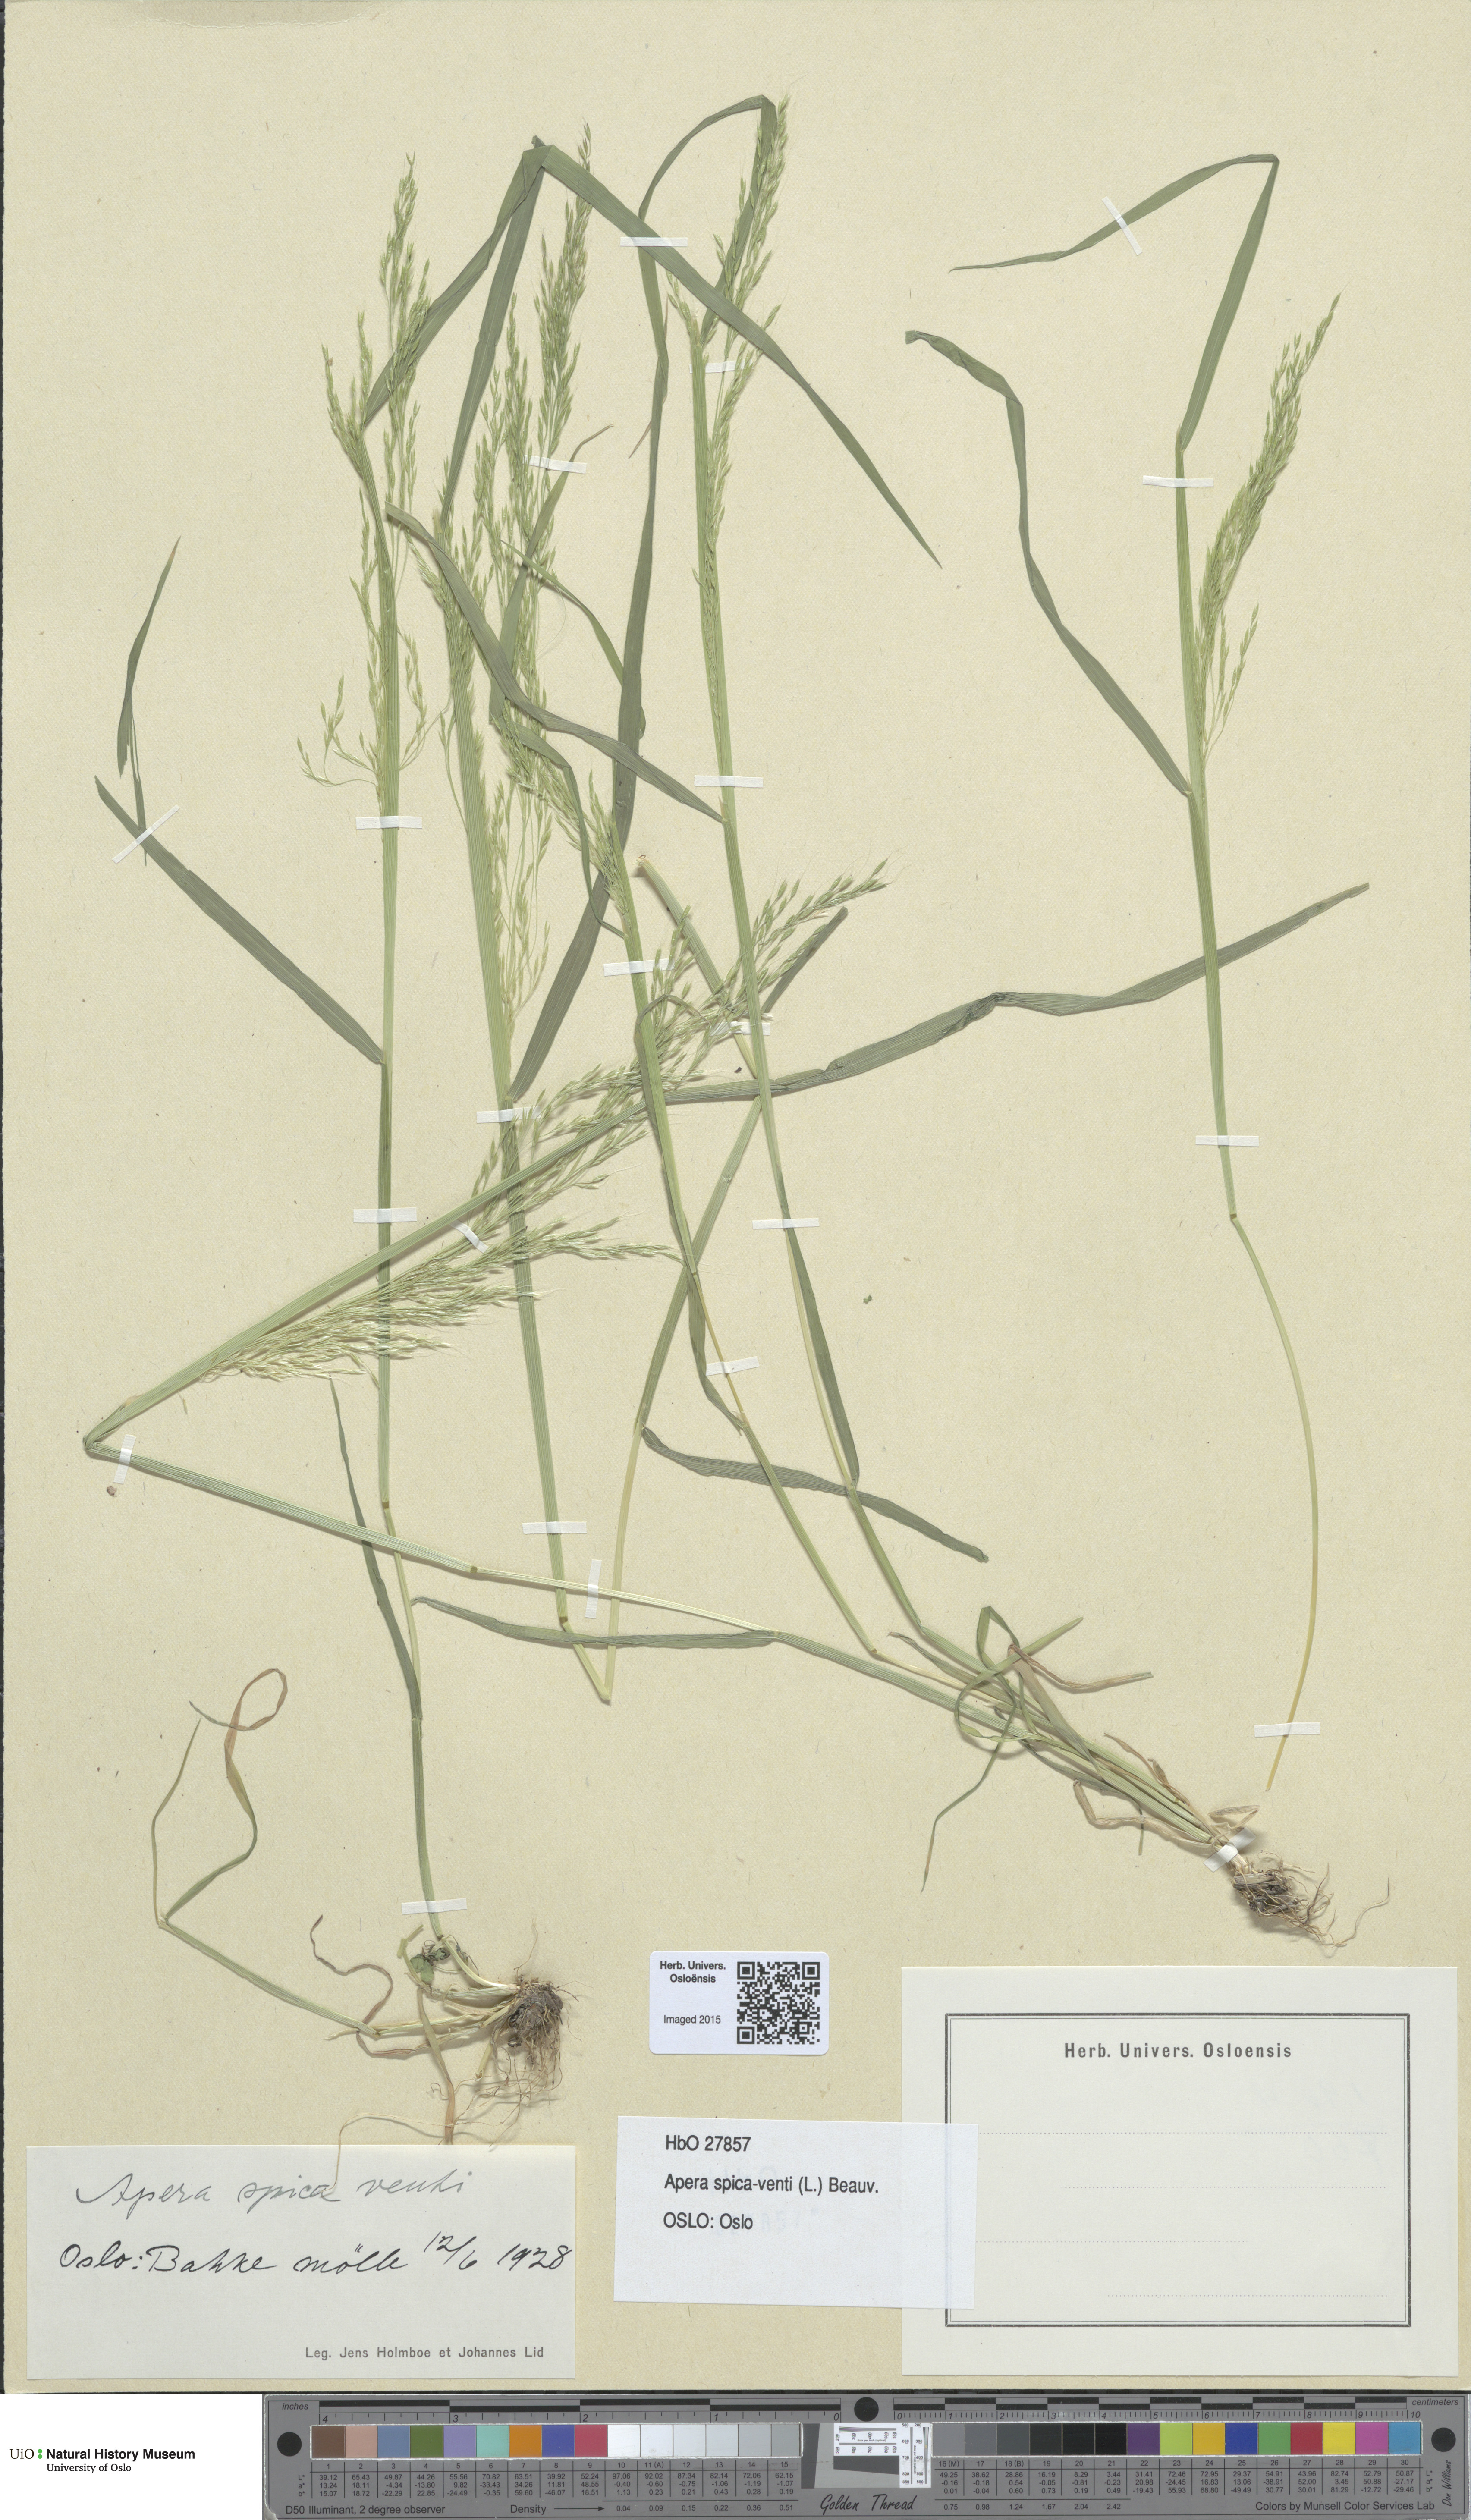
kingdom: Plantae
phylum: Tracheophyta
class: Liliopsida
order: Poales
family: Poaceae
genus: Apera
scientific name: Apera spica-venti
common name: Loose silky-bent
